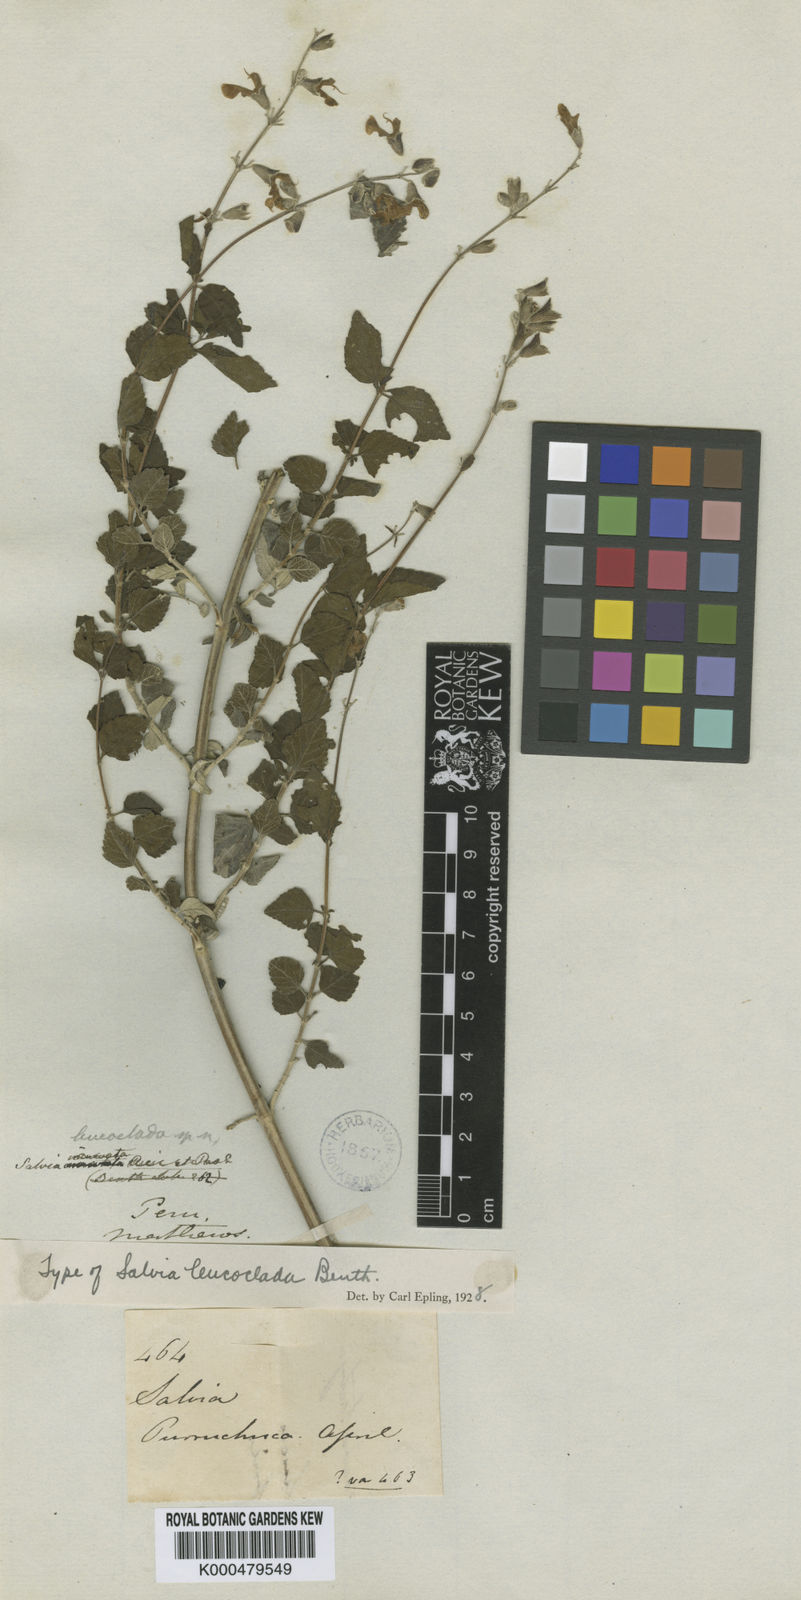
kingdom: Plantae
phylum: Tracheophyta
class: Magnoliopsida
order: Lamiales
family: Lamiaceae
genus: Salvia
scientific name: Salvia
